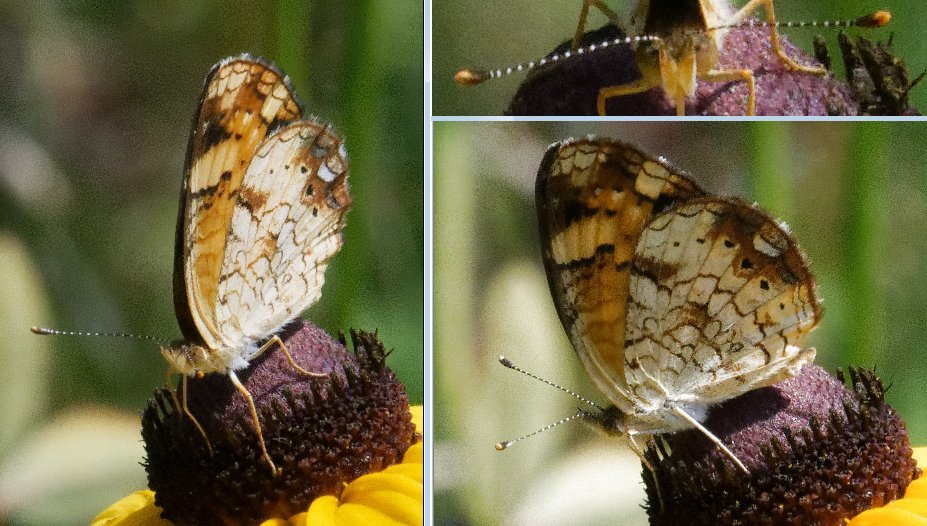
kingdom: Animalia
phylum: Arthropoda
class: Insecta
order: Lepidoptera
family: Nymphalidae
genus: Phyciodes
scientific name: Phyciodes tharos
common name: Northern Crescent
